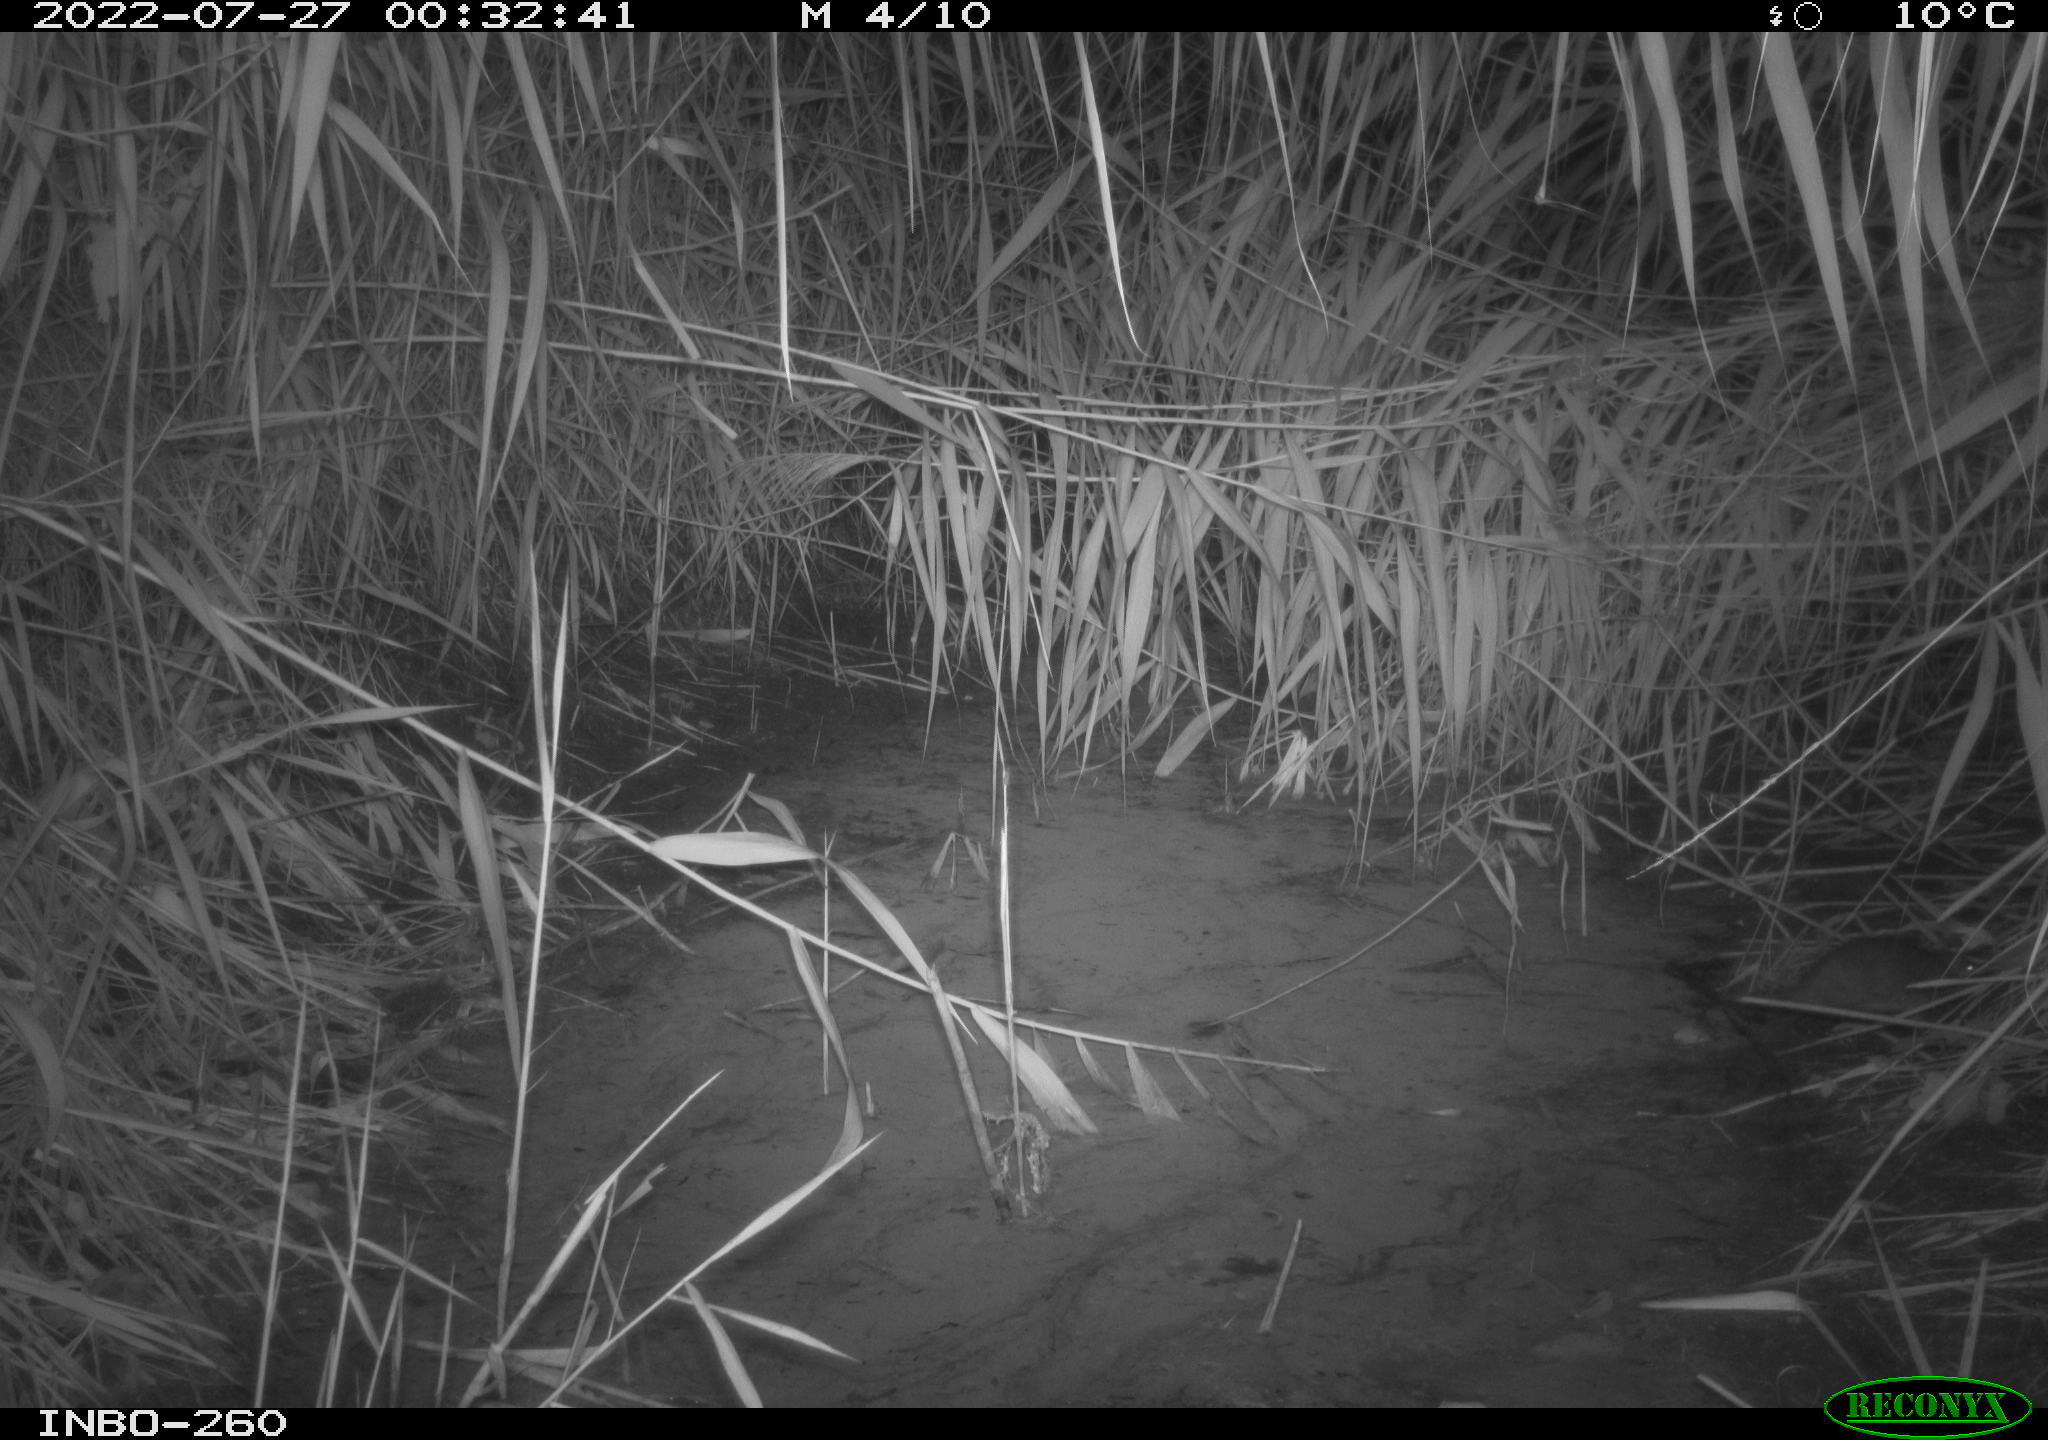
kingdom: Animalia
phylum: Chordata
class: Mammalia
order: Rodentia
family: Muridae
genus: Rattus
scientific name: Rattus norvegicus
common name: Brown rat
